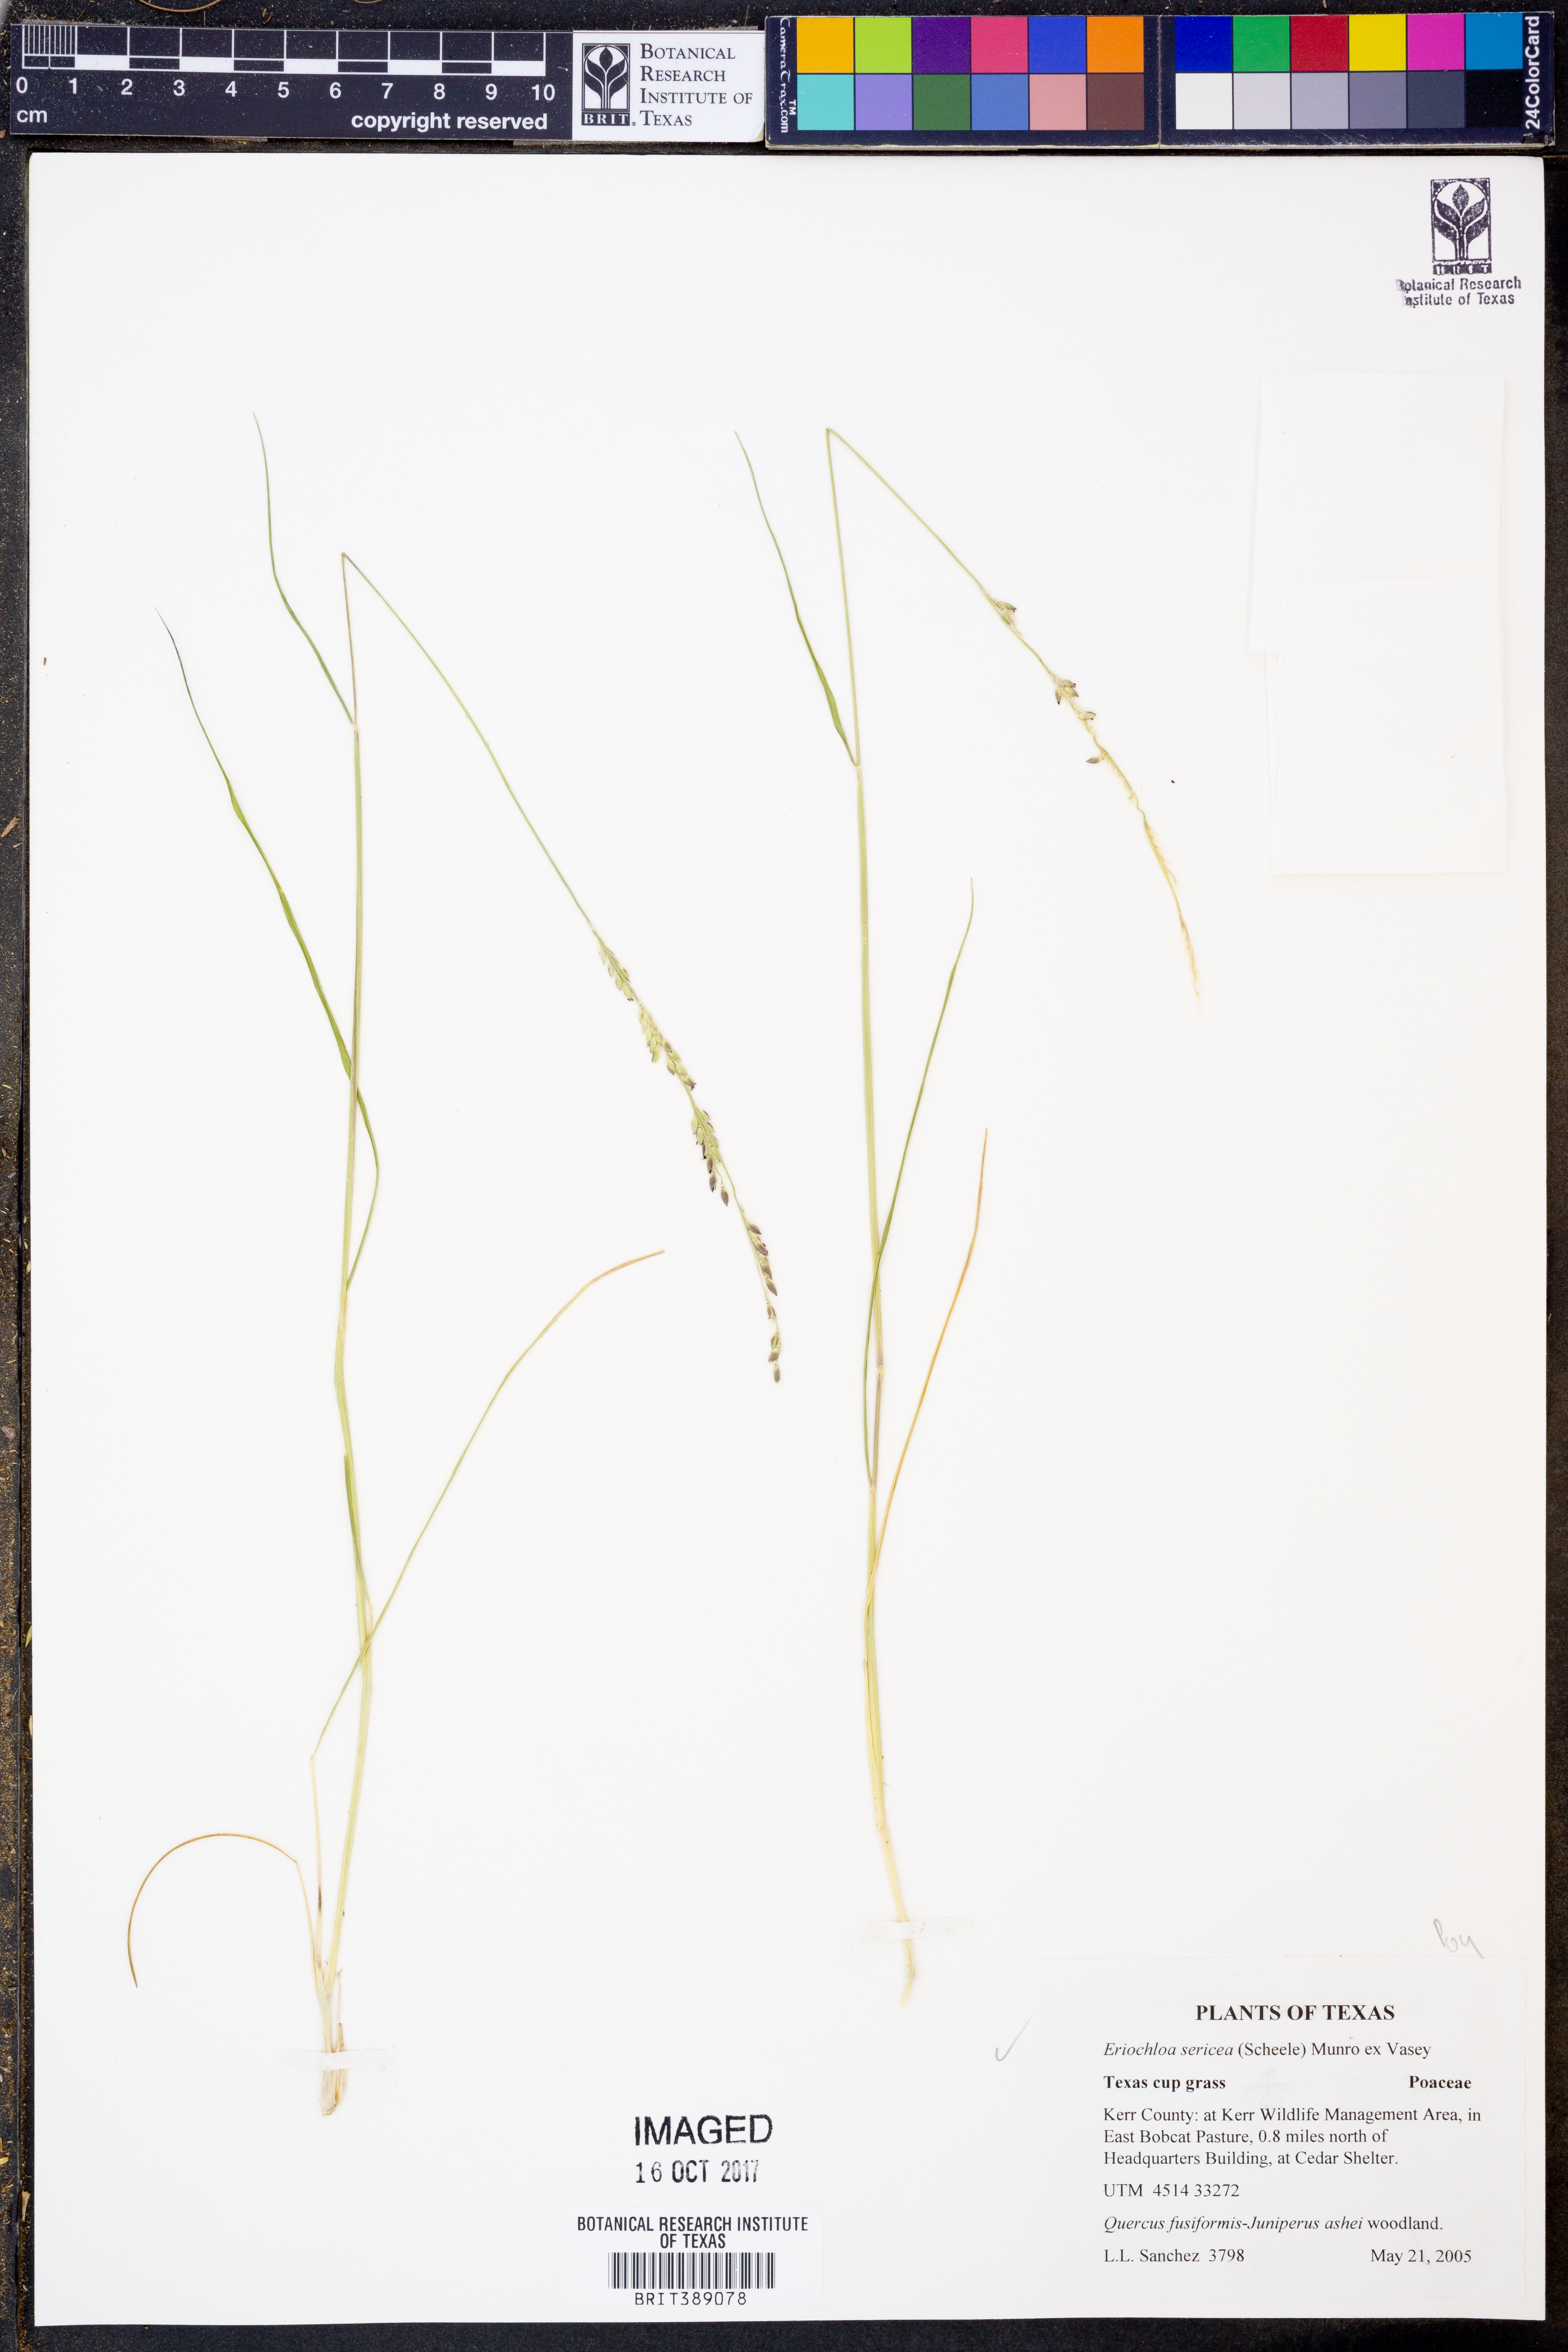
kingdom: Plantae
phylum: Tracheophyta
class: Liliopsida
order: Poales
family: Poaceae
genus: Eriochloa
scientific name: Eriochloa sericea
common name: Texas cup grass
